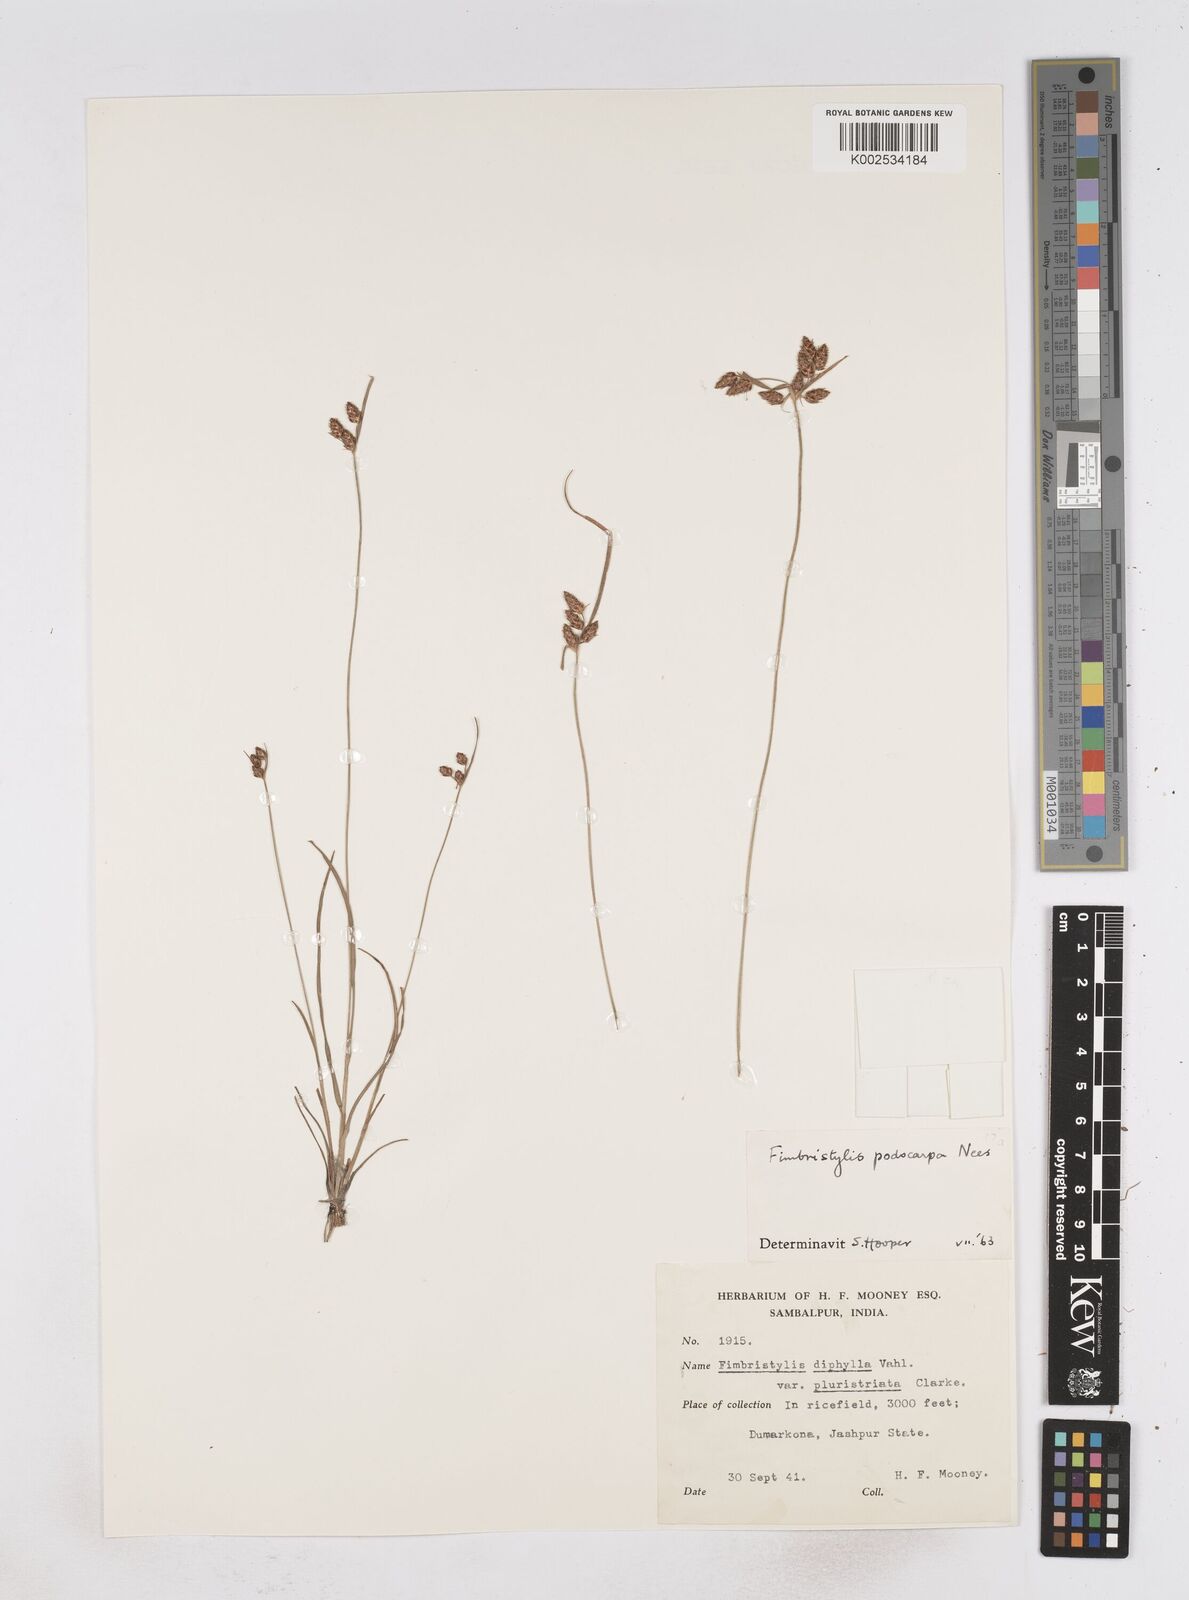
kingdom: Plantae
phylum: Tracheophyta
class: Liliopsida
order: Poales
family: Cyperaceae
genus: Fimbristylis
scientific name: Fimbristylis dichotoma
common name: Forked fimbry
